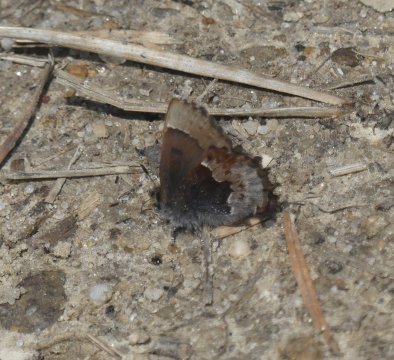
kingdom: Animalia
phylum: Arthropoda
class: Insecta
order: Lepidoptera
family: Lycaenidae
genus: Incisalia
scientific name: Incisalia henrici
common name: Henry's Elfin
